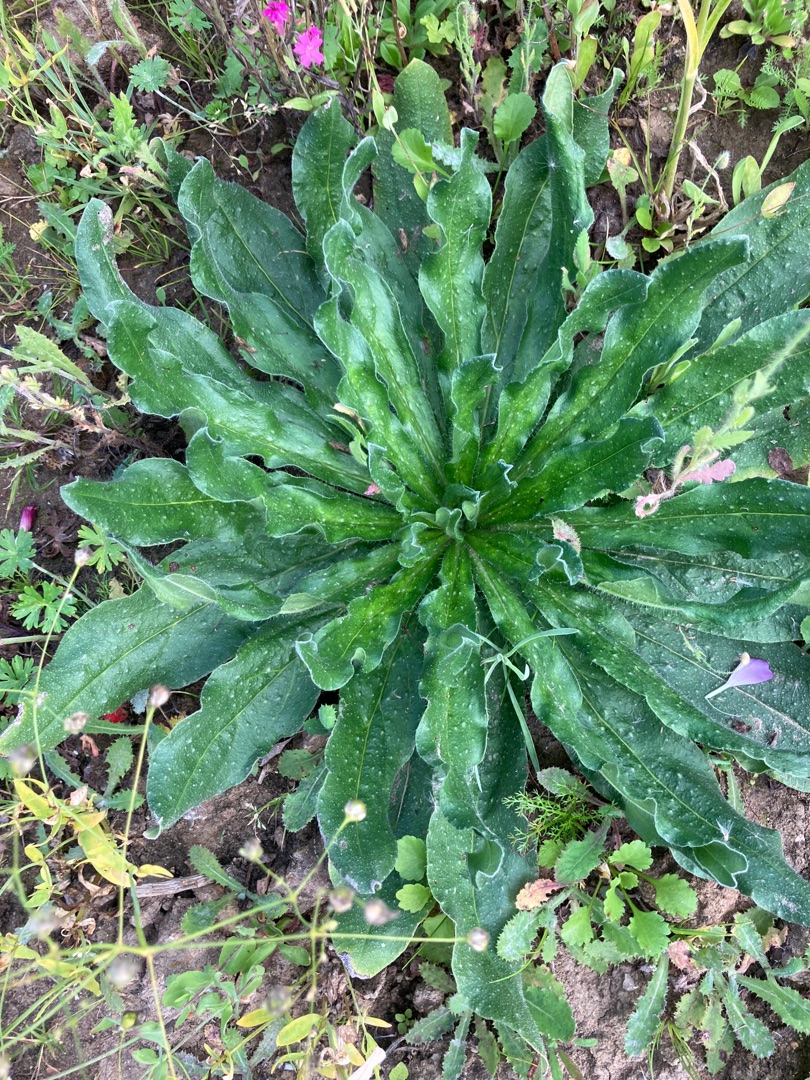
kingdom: Plantae
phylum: Tracheophyta
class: Magnoliopsida
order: Boraginales
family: Boraginaceae
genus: Echium
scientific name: Echium vulgare
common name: Slangehoved
